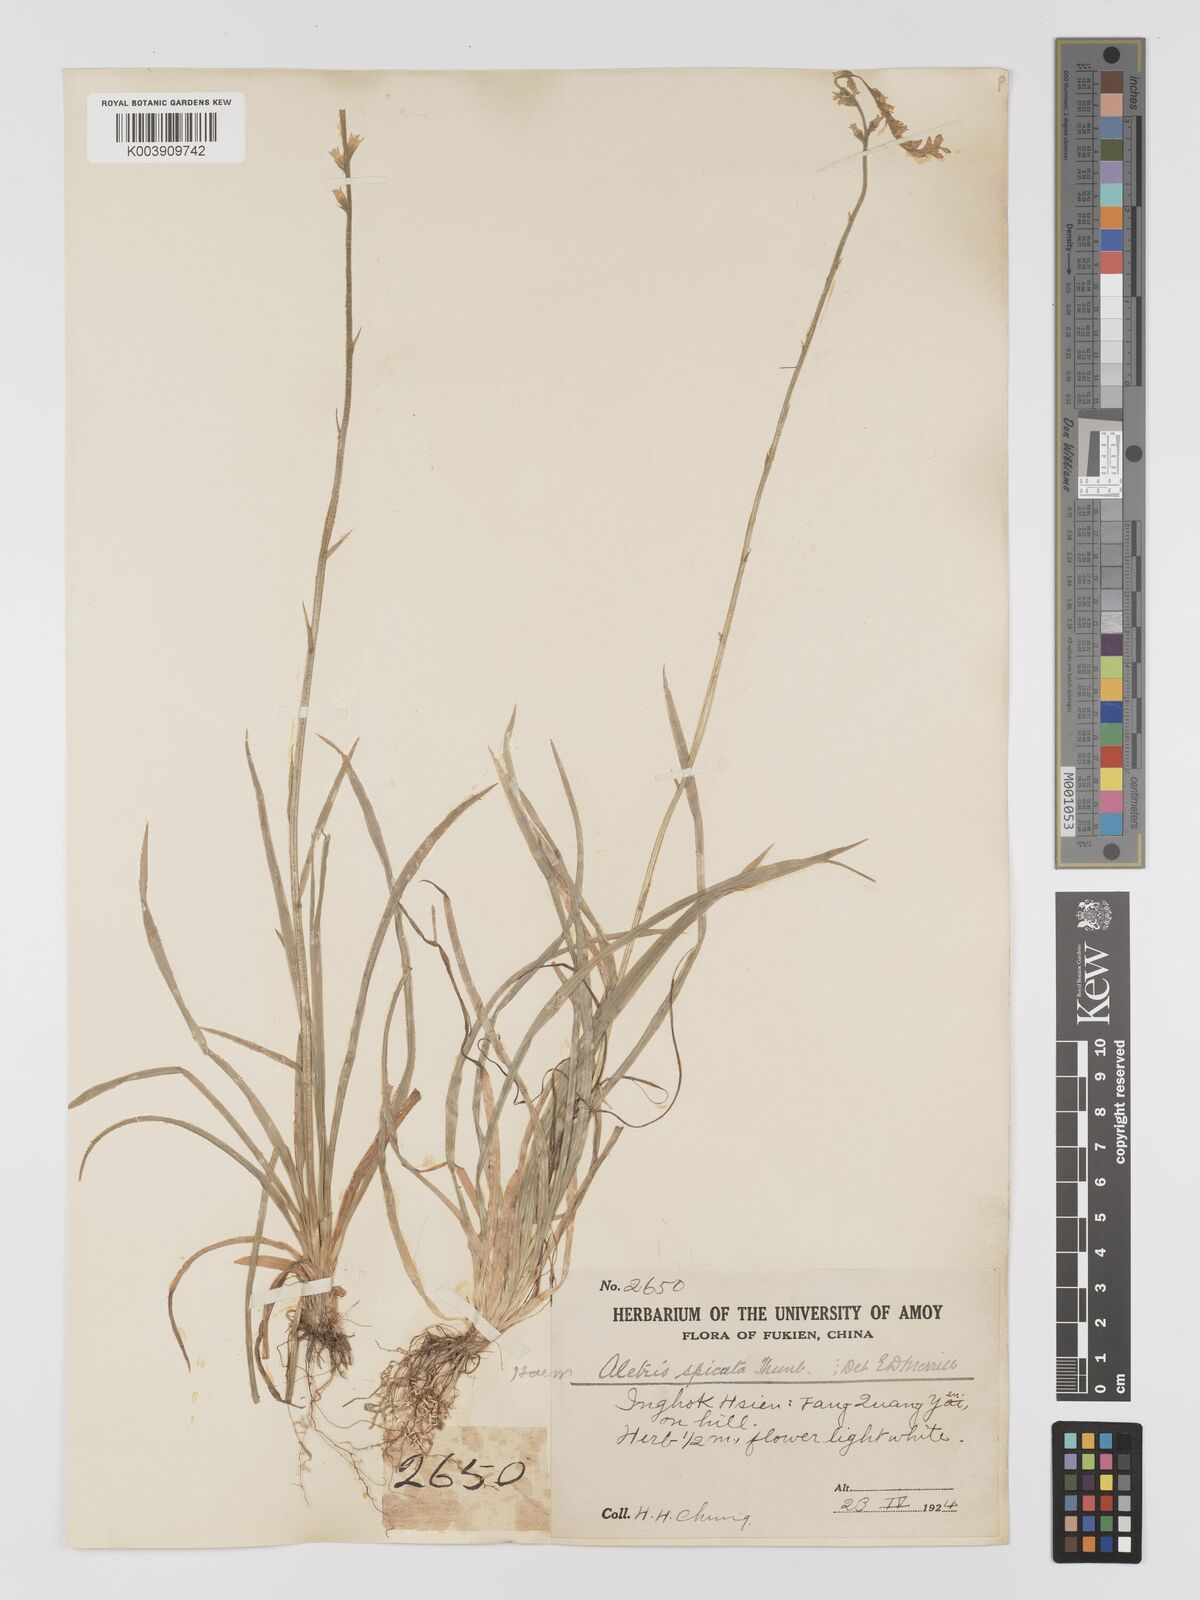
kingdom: Plantae
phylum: Tracheophyta
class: Liliopsida
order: Dioscoreales
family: Nartheciaceae
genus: Aletris
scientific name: Aletris spicata
